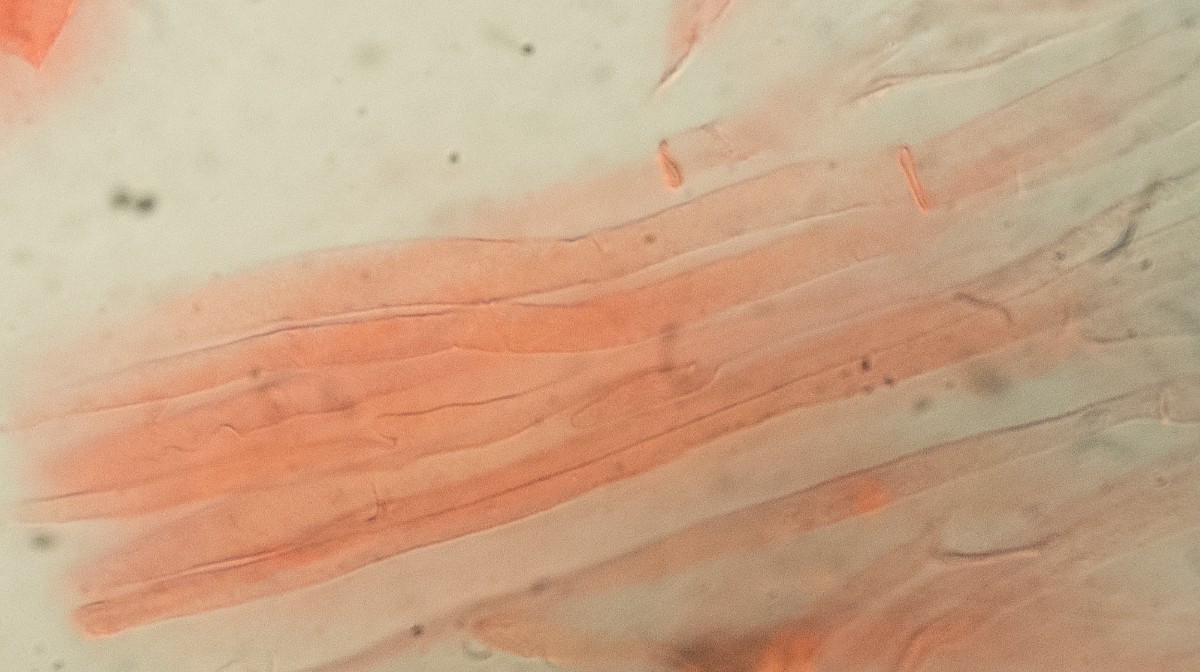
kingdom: Fungi
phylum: Basidiomycota
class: Agaricomycetes
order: Agaricales
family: Mycenaceae
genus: Mycena
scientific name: Mycena niveipes
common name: vår-huesvamp
